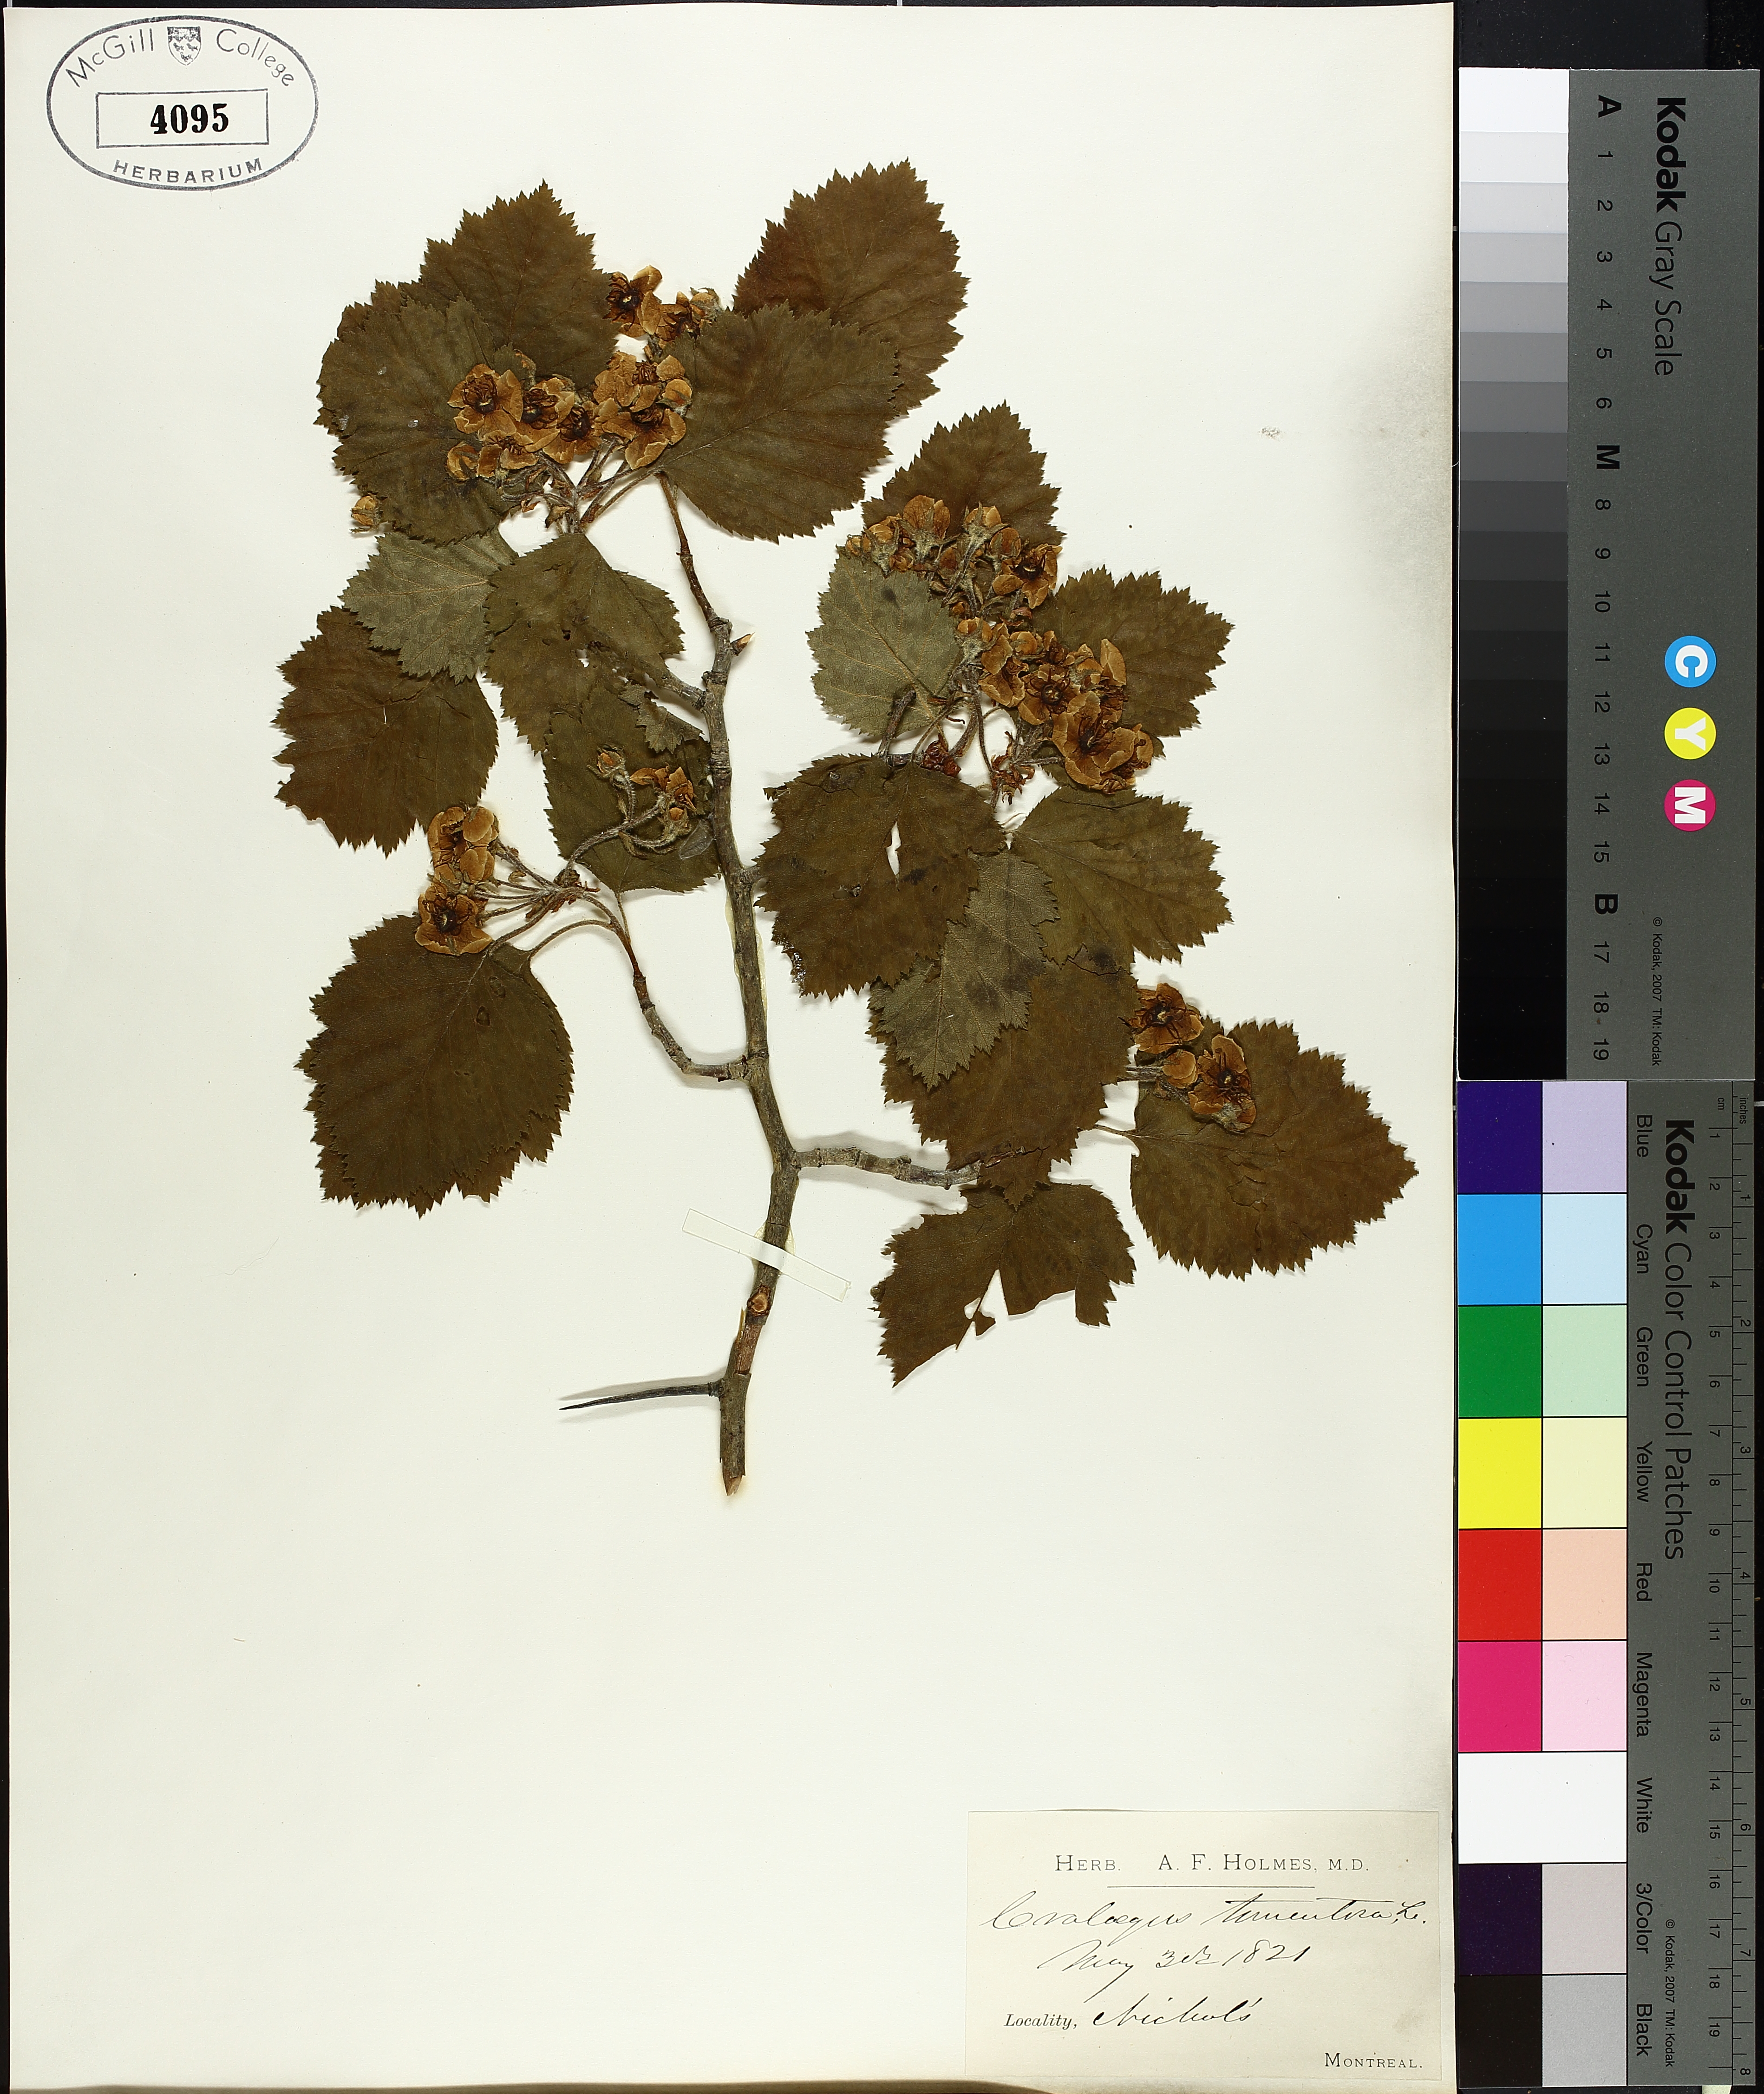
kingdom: Plantae
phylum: Tracheophyta
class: Magnoliopsida
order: Rosales
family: Rosaceae
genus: Crataegus
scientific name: Crataegus calpodendron
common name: Pear hawthorn
